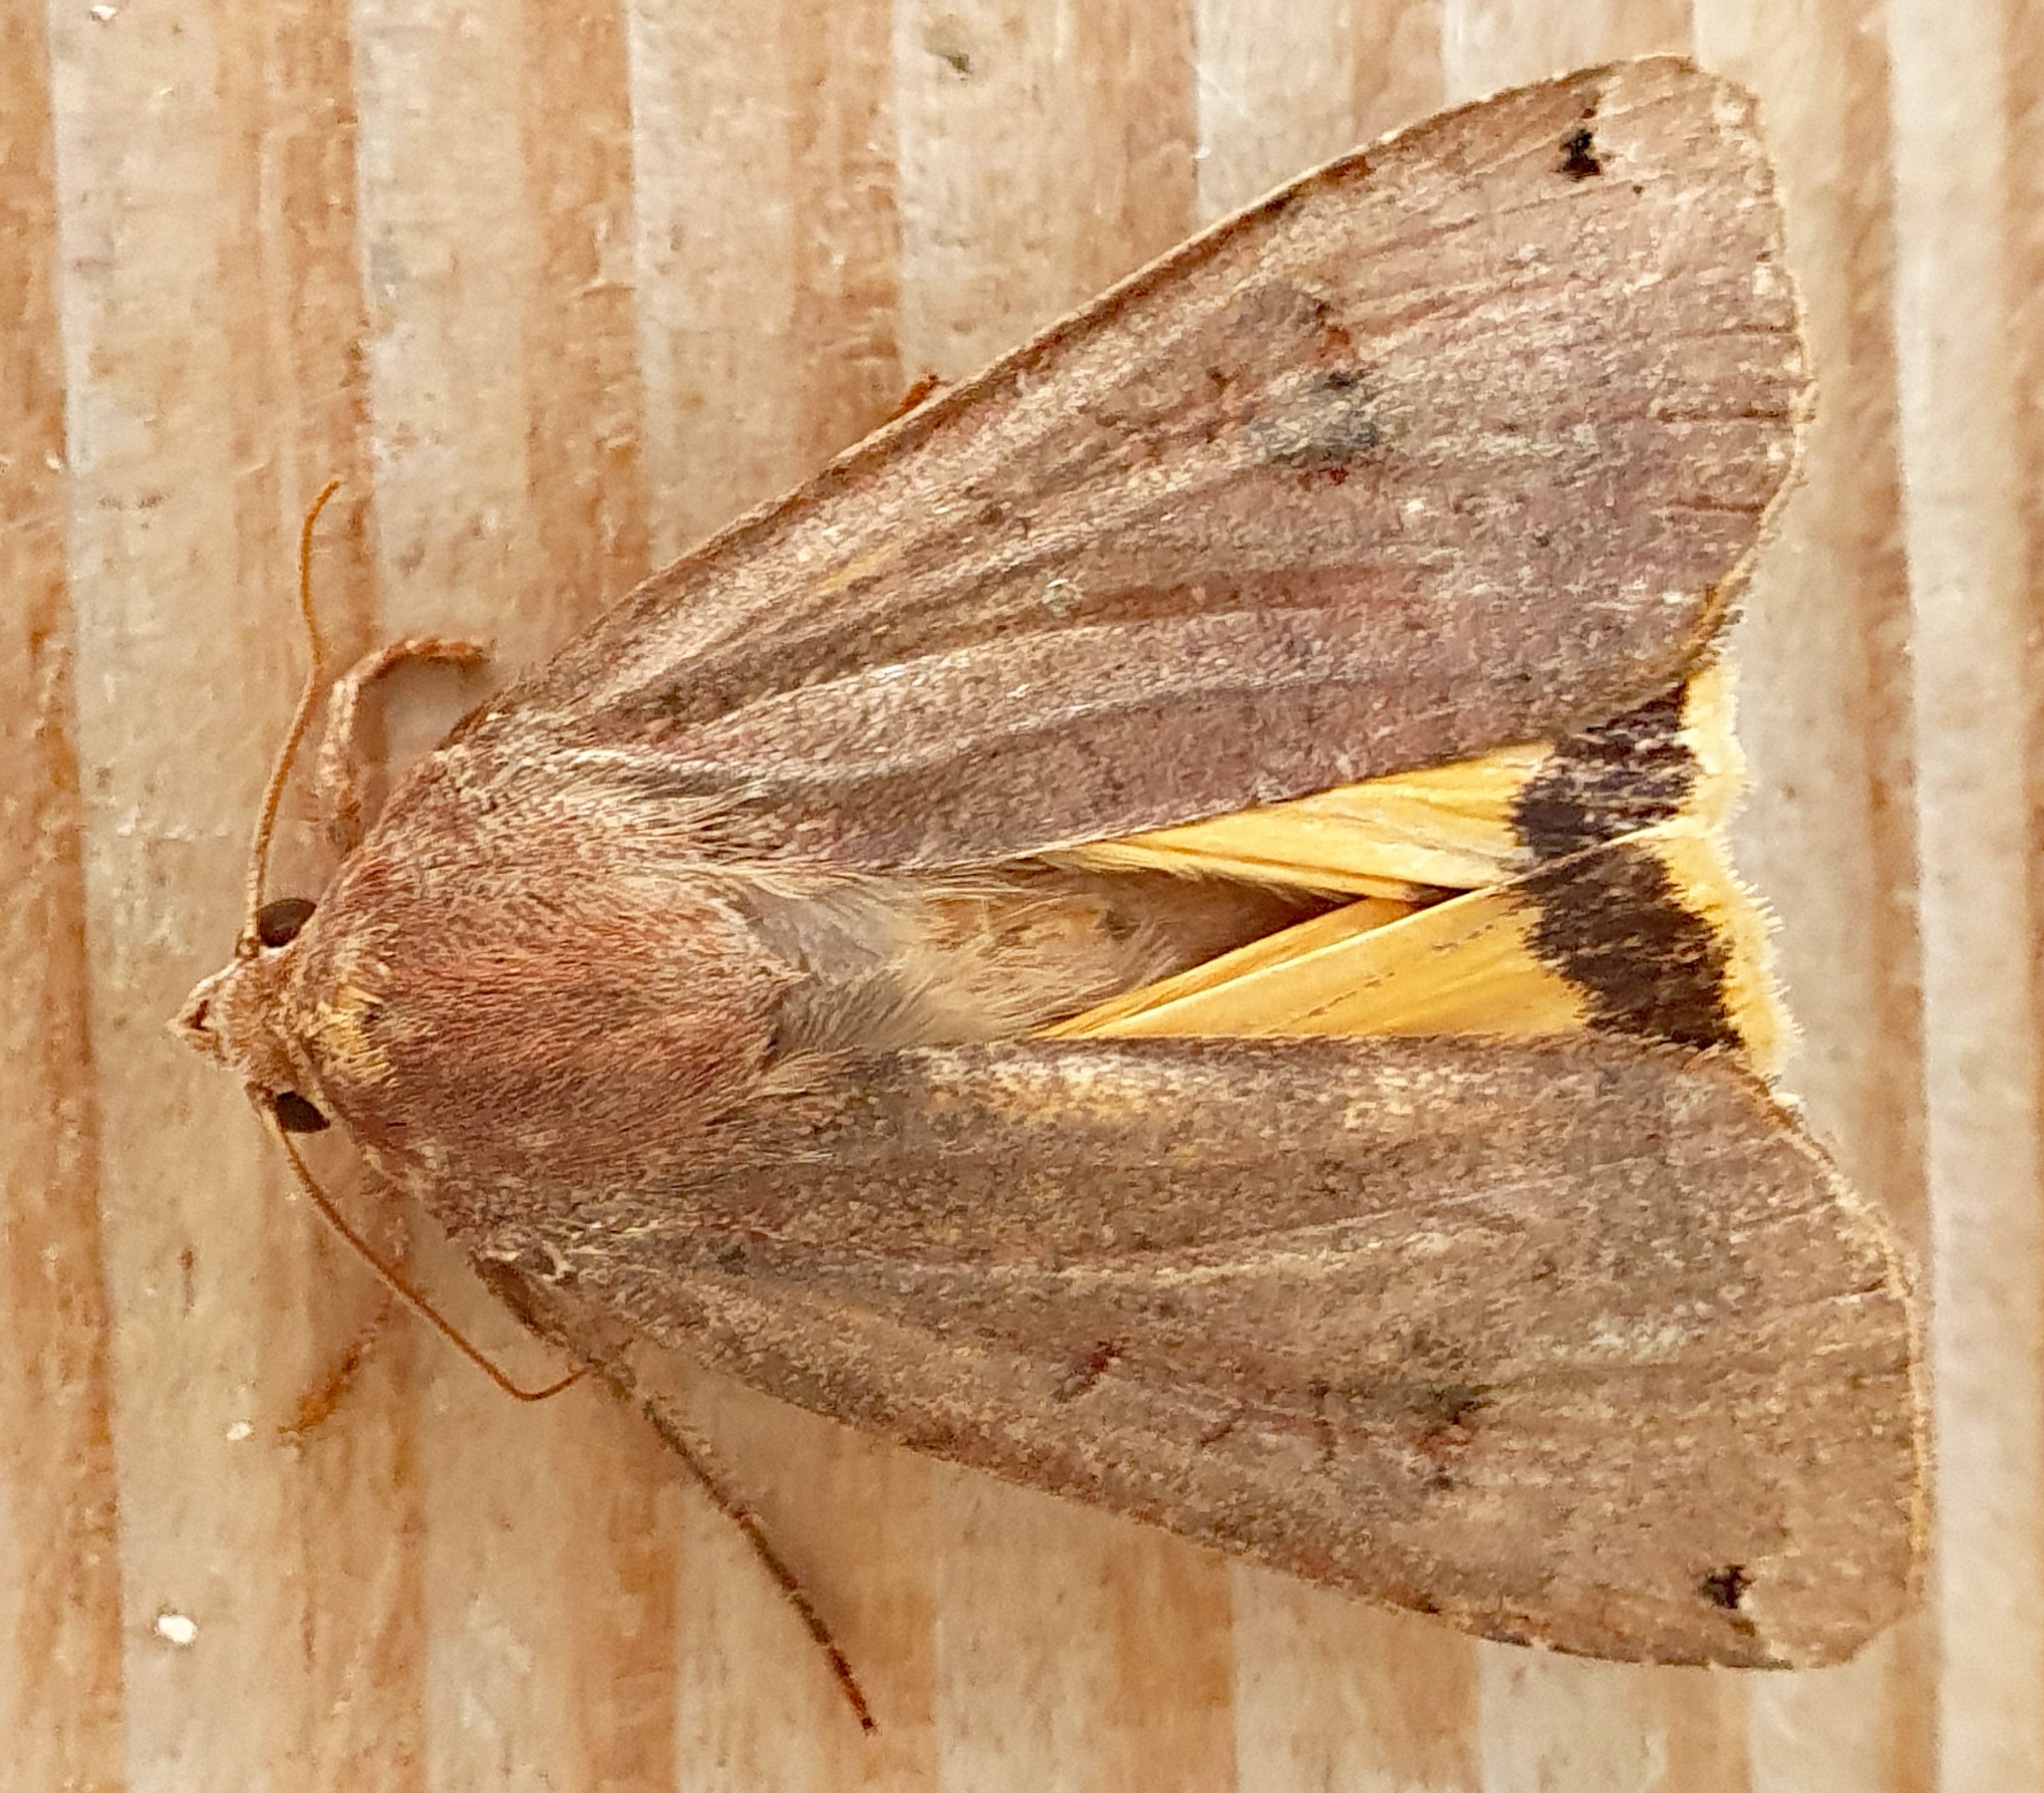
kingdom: Animalia
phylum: Arthropoda
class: Insecta
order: Lepidoptera
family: Noctuidae
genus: Noctua
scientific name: Noctua pronuba
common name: Stor smutugle
